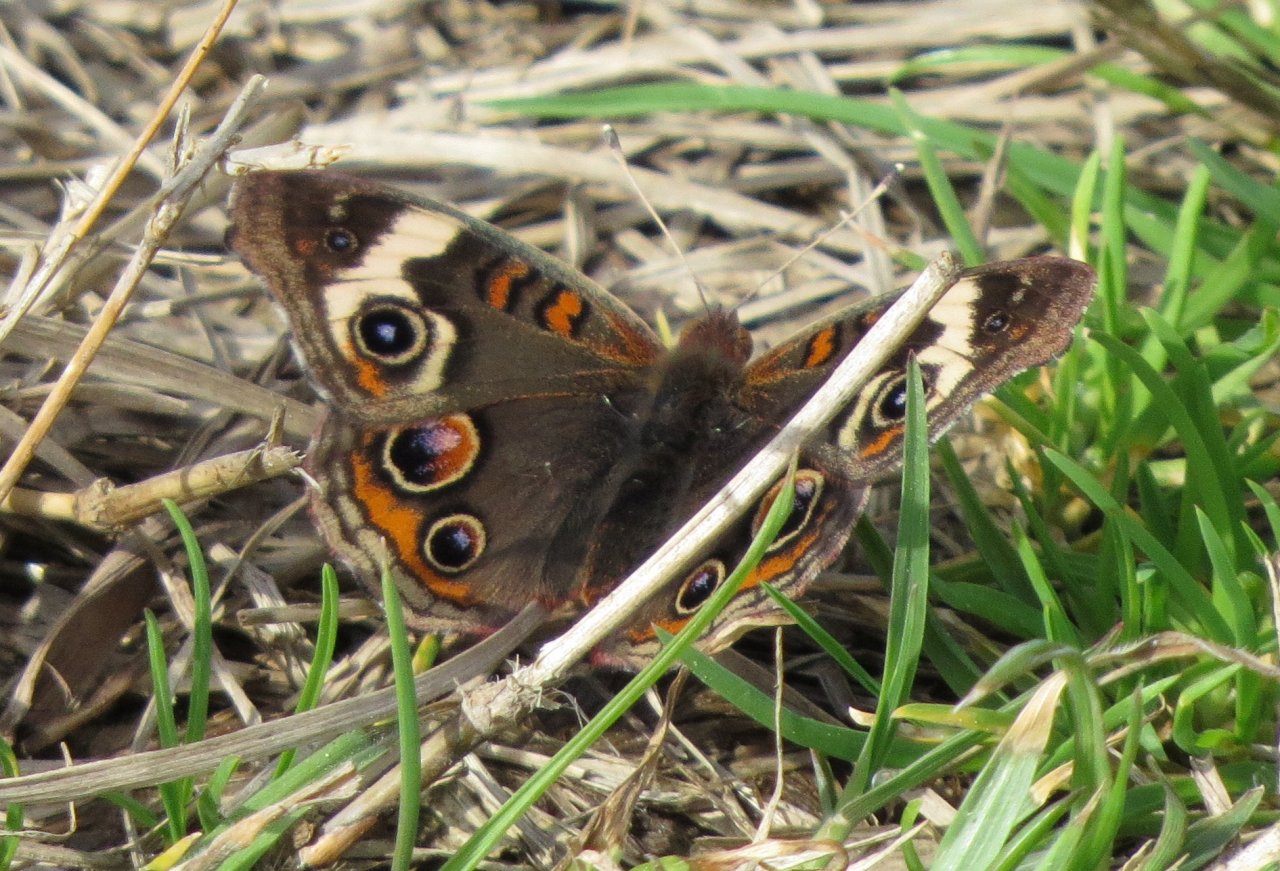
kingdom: Animalia
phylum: Arthropoda
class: Insecta
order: Lepidoptera
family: Nymphalidae
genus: Junonia
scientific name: Junonia coenia
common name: Common Buckeye
